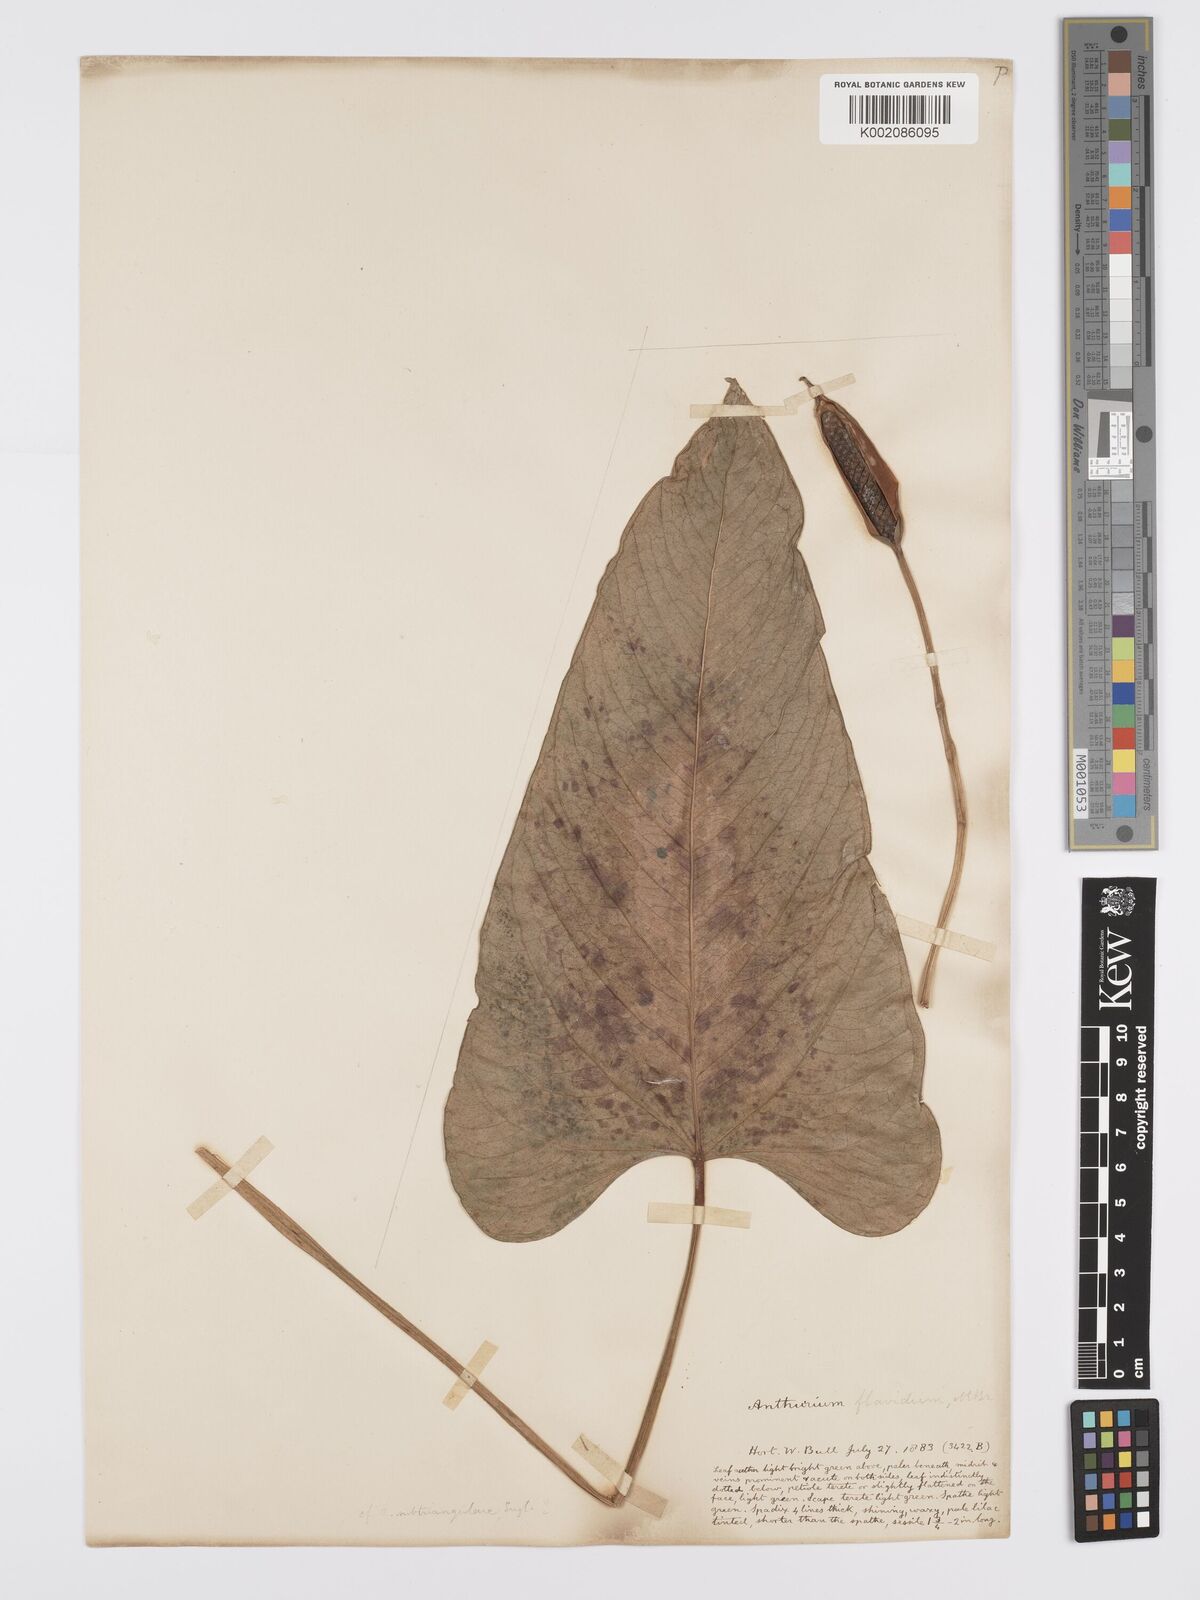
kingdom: Plantae
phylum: Tracheophyta
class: Liliopsida
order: Alismatales
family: Araceae
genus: Anthurium
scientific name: Anthurium flavidum
